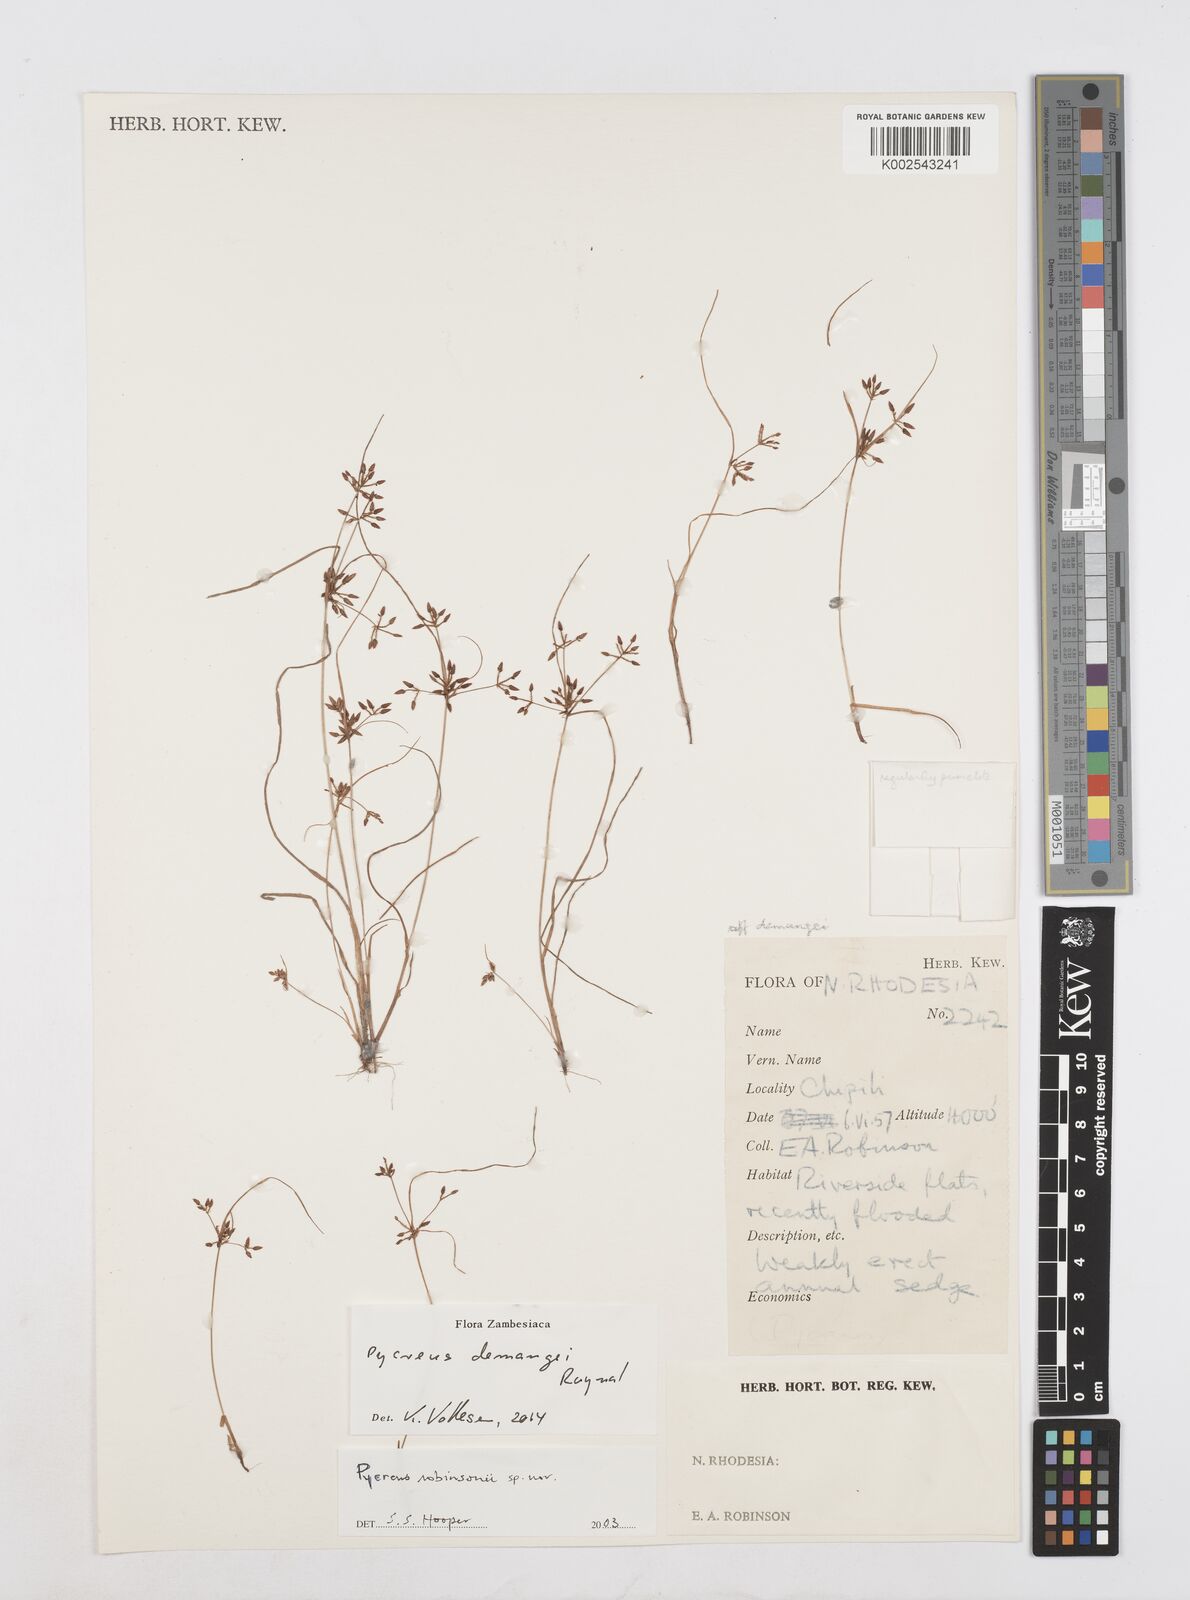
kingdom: Plantae
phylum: Tracheophyta
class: Liliopsida
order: Poales
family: Cyperaceae
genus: Cyperus
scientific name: Cyperus demangei
